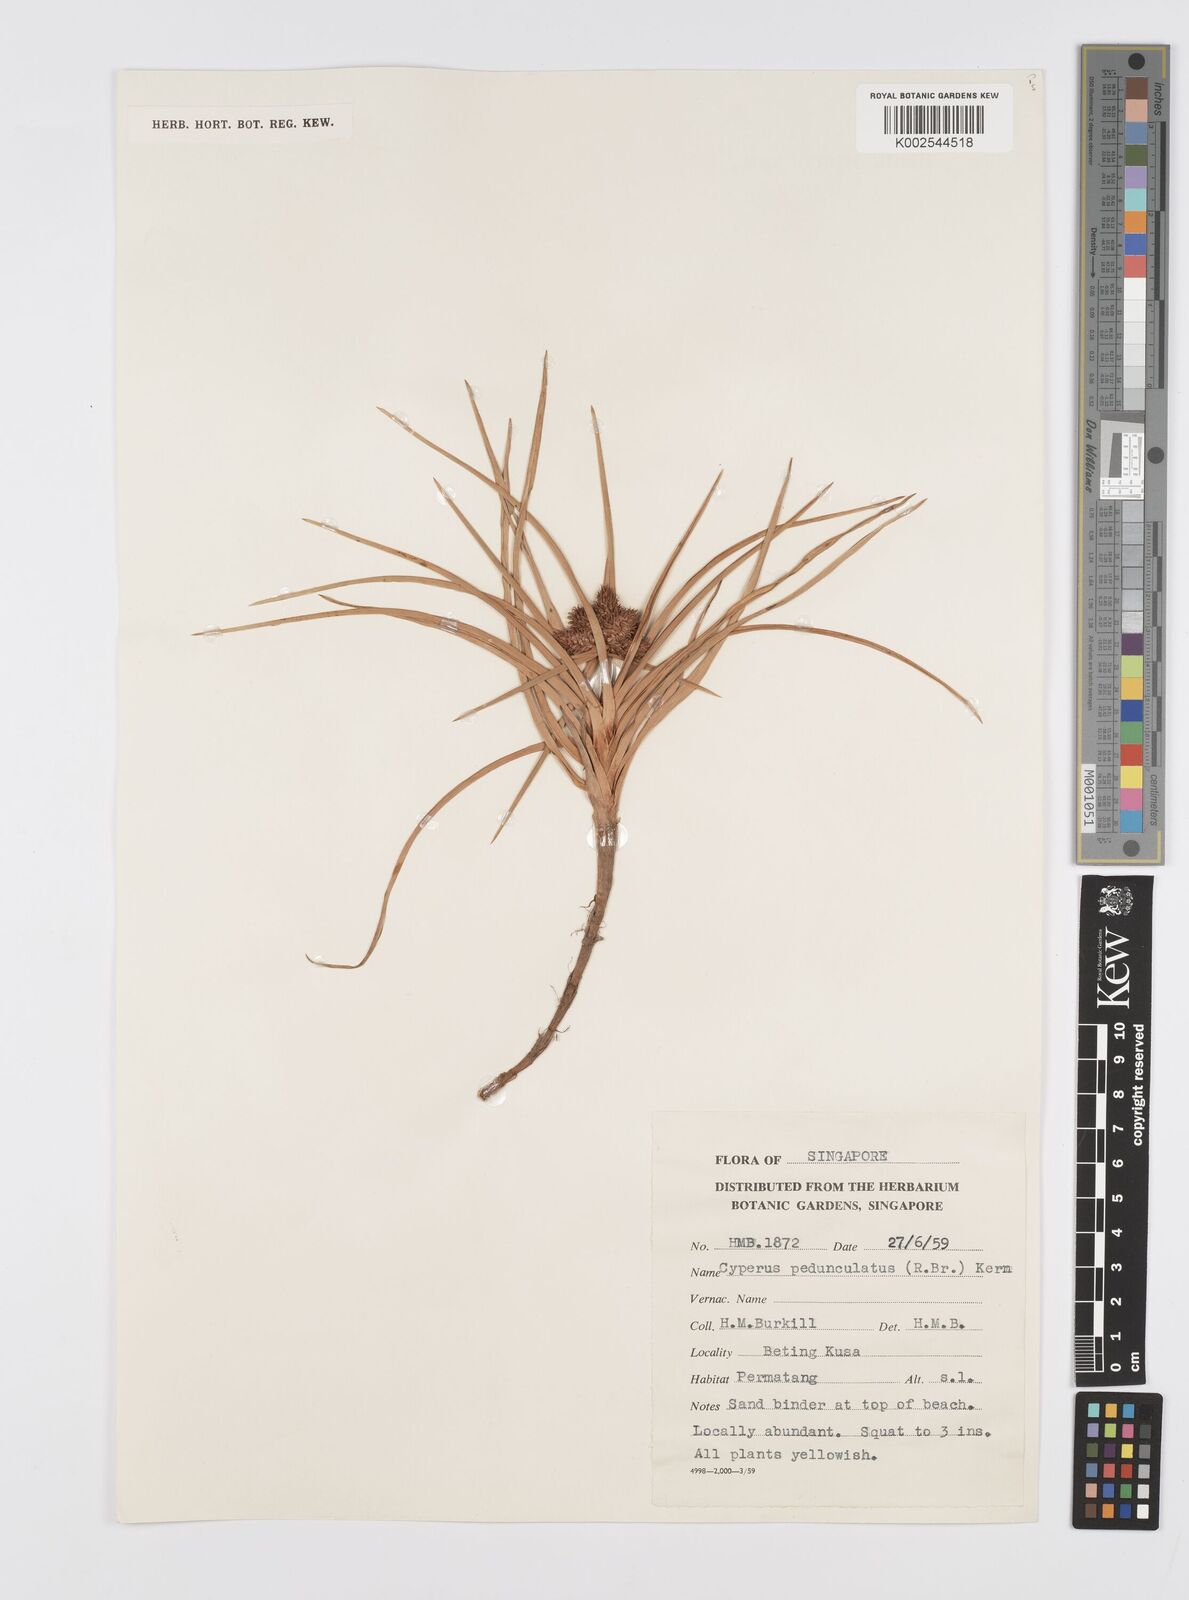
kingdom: Plantae
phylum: Tracheophyta
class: Liliopsida
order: Poales
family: Cyperaceae
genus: Cyperus
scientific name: Cyperus
